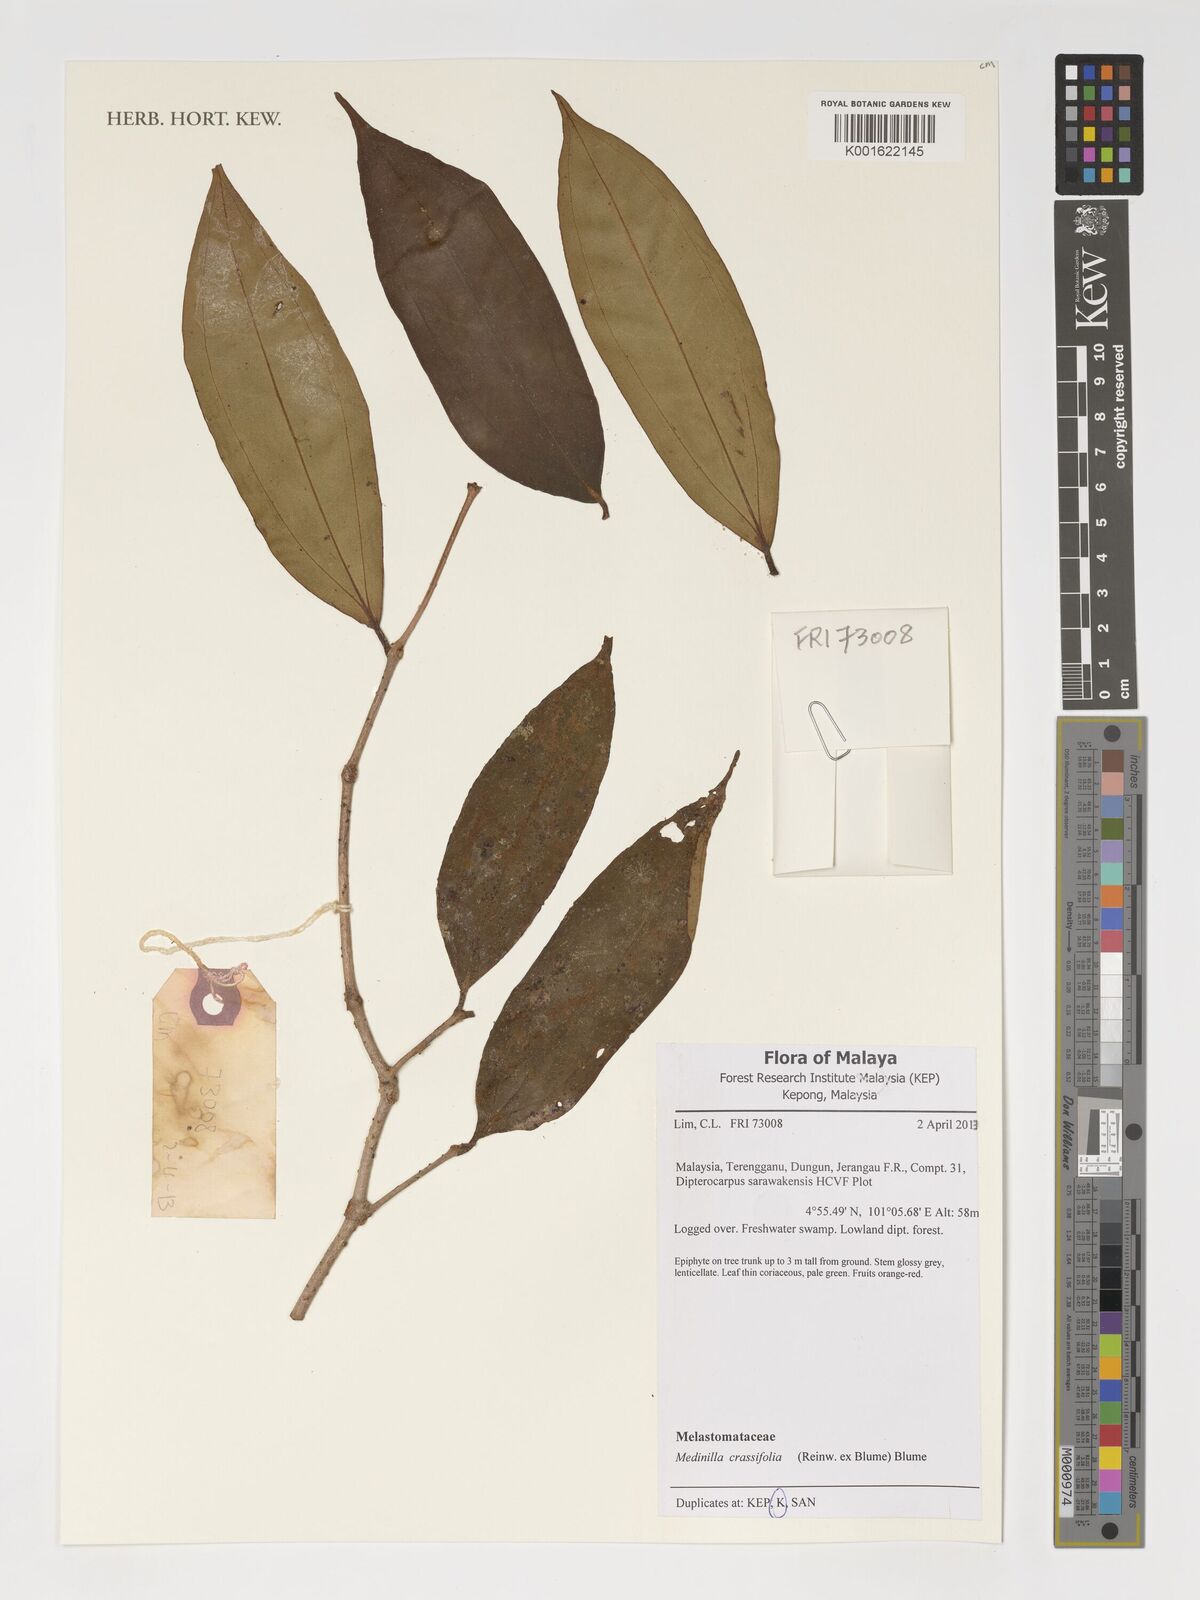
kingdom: Plantae
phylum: Tracheophyta
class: Magnoliopsida
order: Myrtales
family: Melastomataceae
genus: Medinilla
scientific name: Medinilla crassifolia
